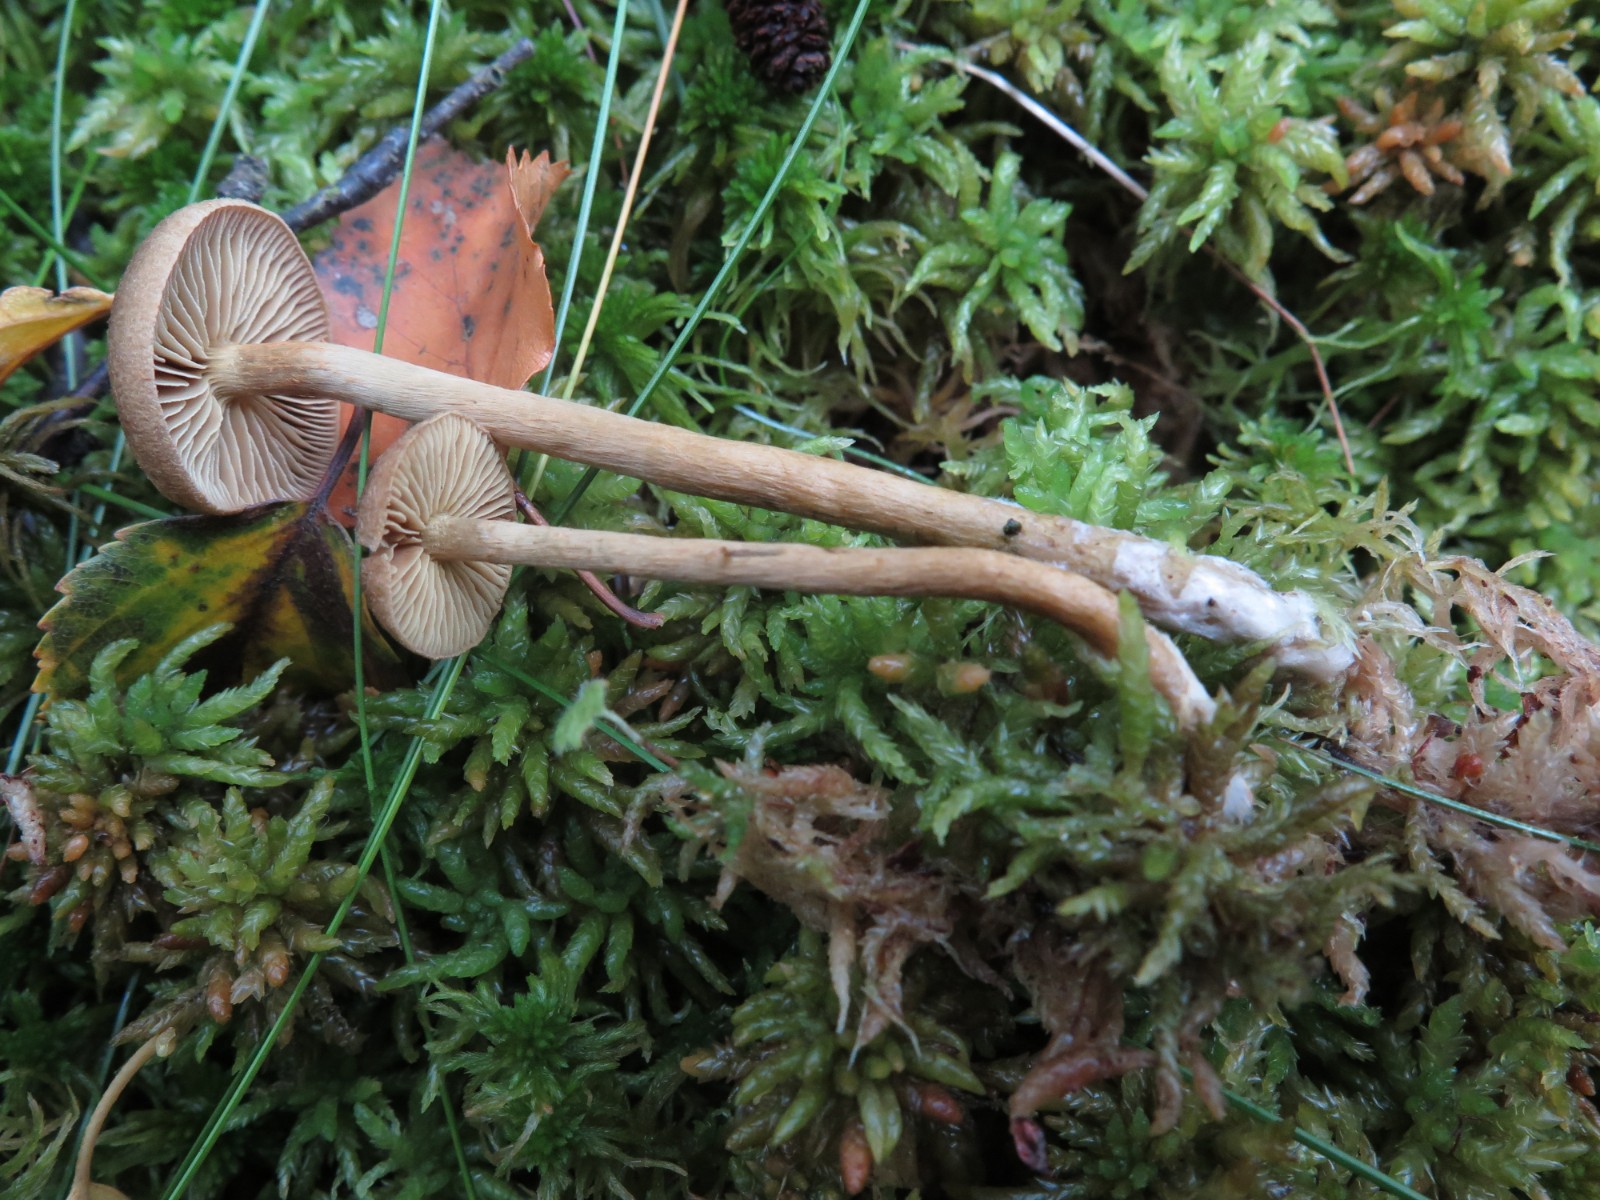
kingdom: Fungi
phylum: Basidiomycota
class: Agaricomycetes
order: Agaricales
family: Cortinariaceae
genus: Cortinarius
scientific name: Cortinarius chrysolitus
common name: tørve-slørhat
